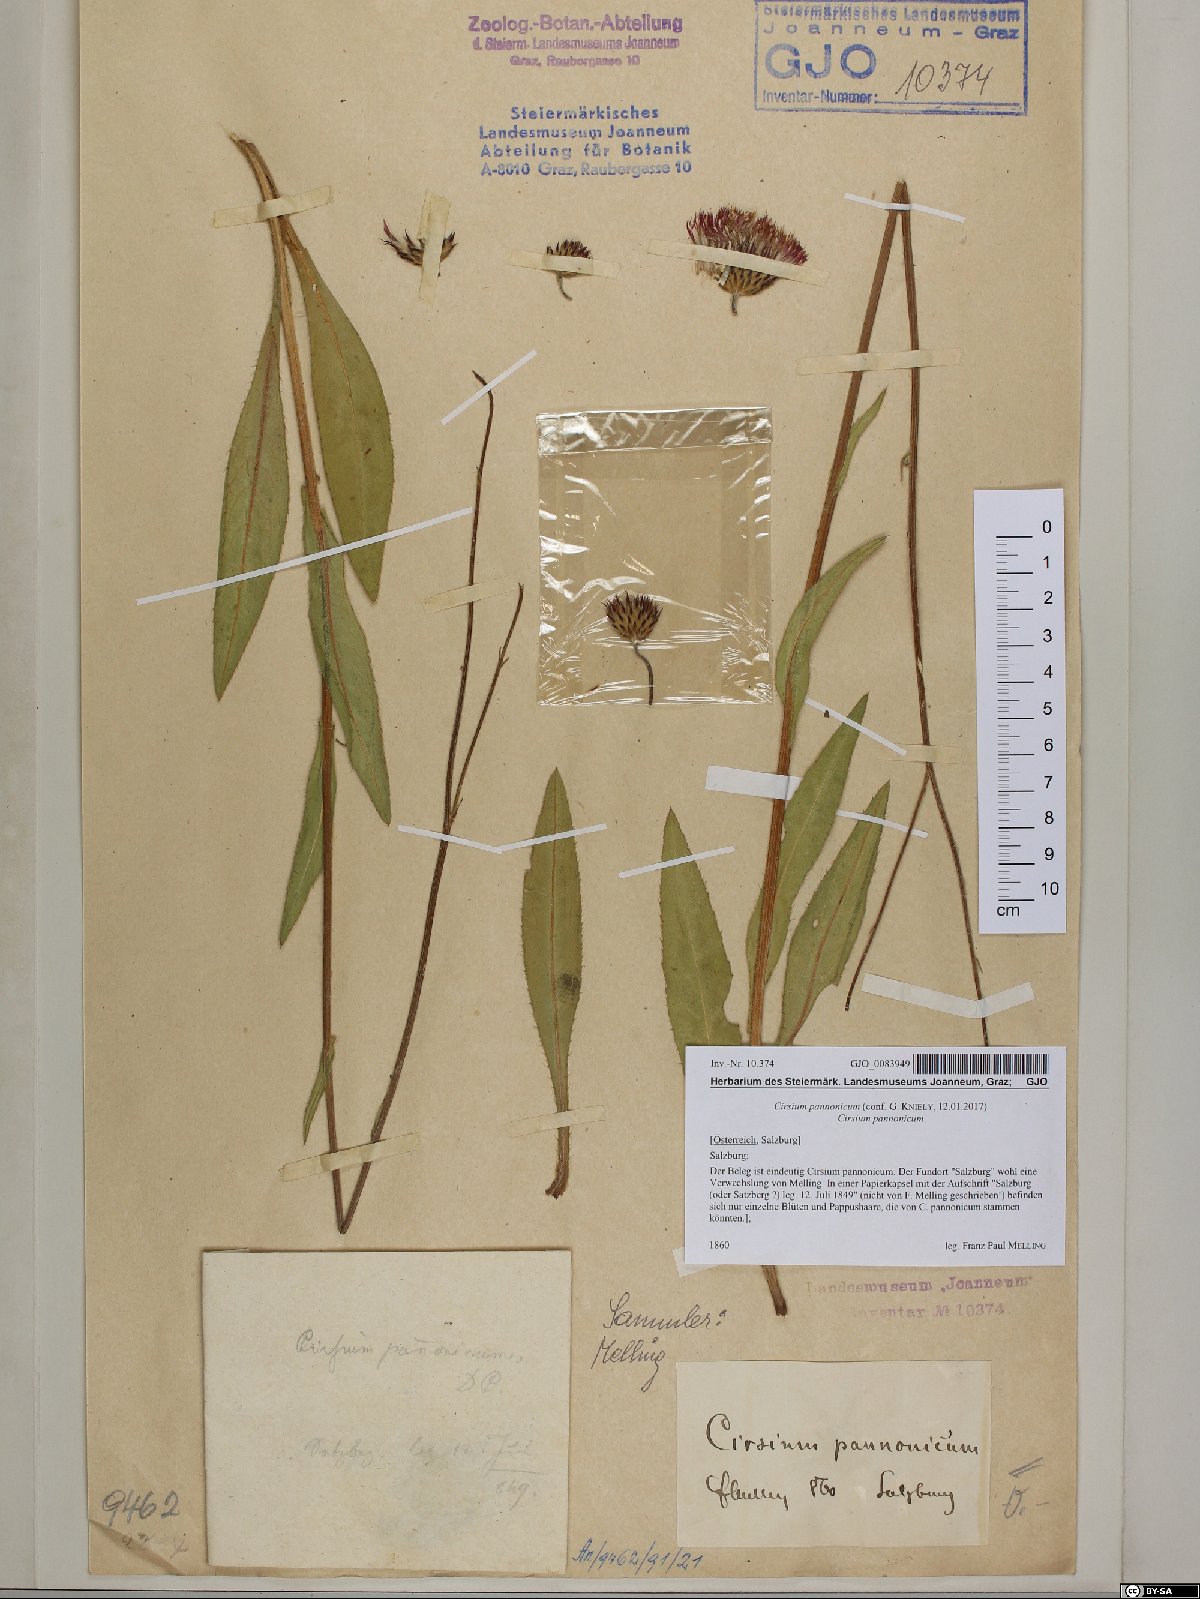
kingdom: Plantae
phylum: Tracheophyta
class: Magnoliopsida
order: Asterales
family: Asteraceae
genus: Cirsium
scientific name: Cirsium pannonicum
